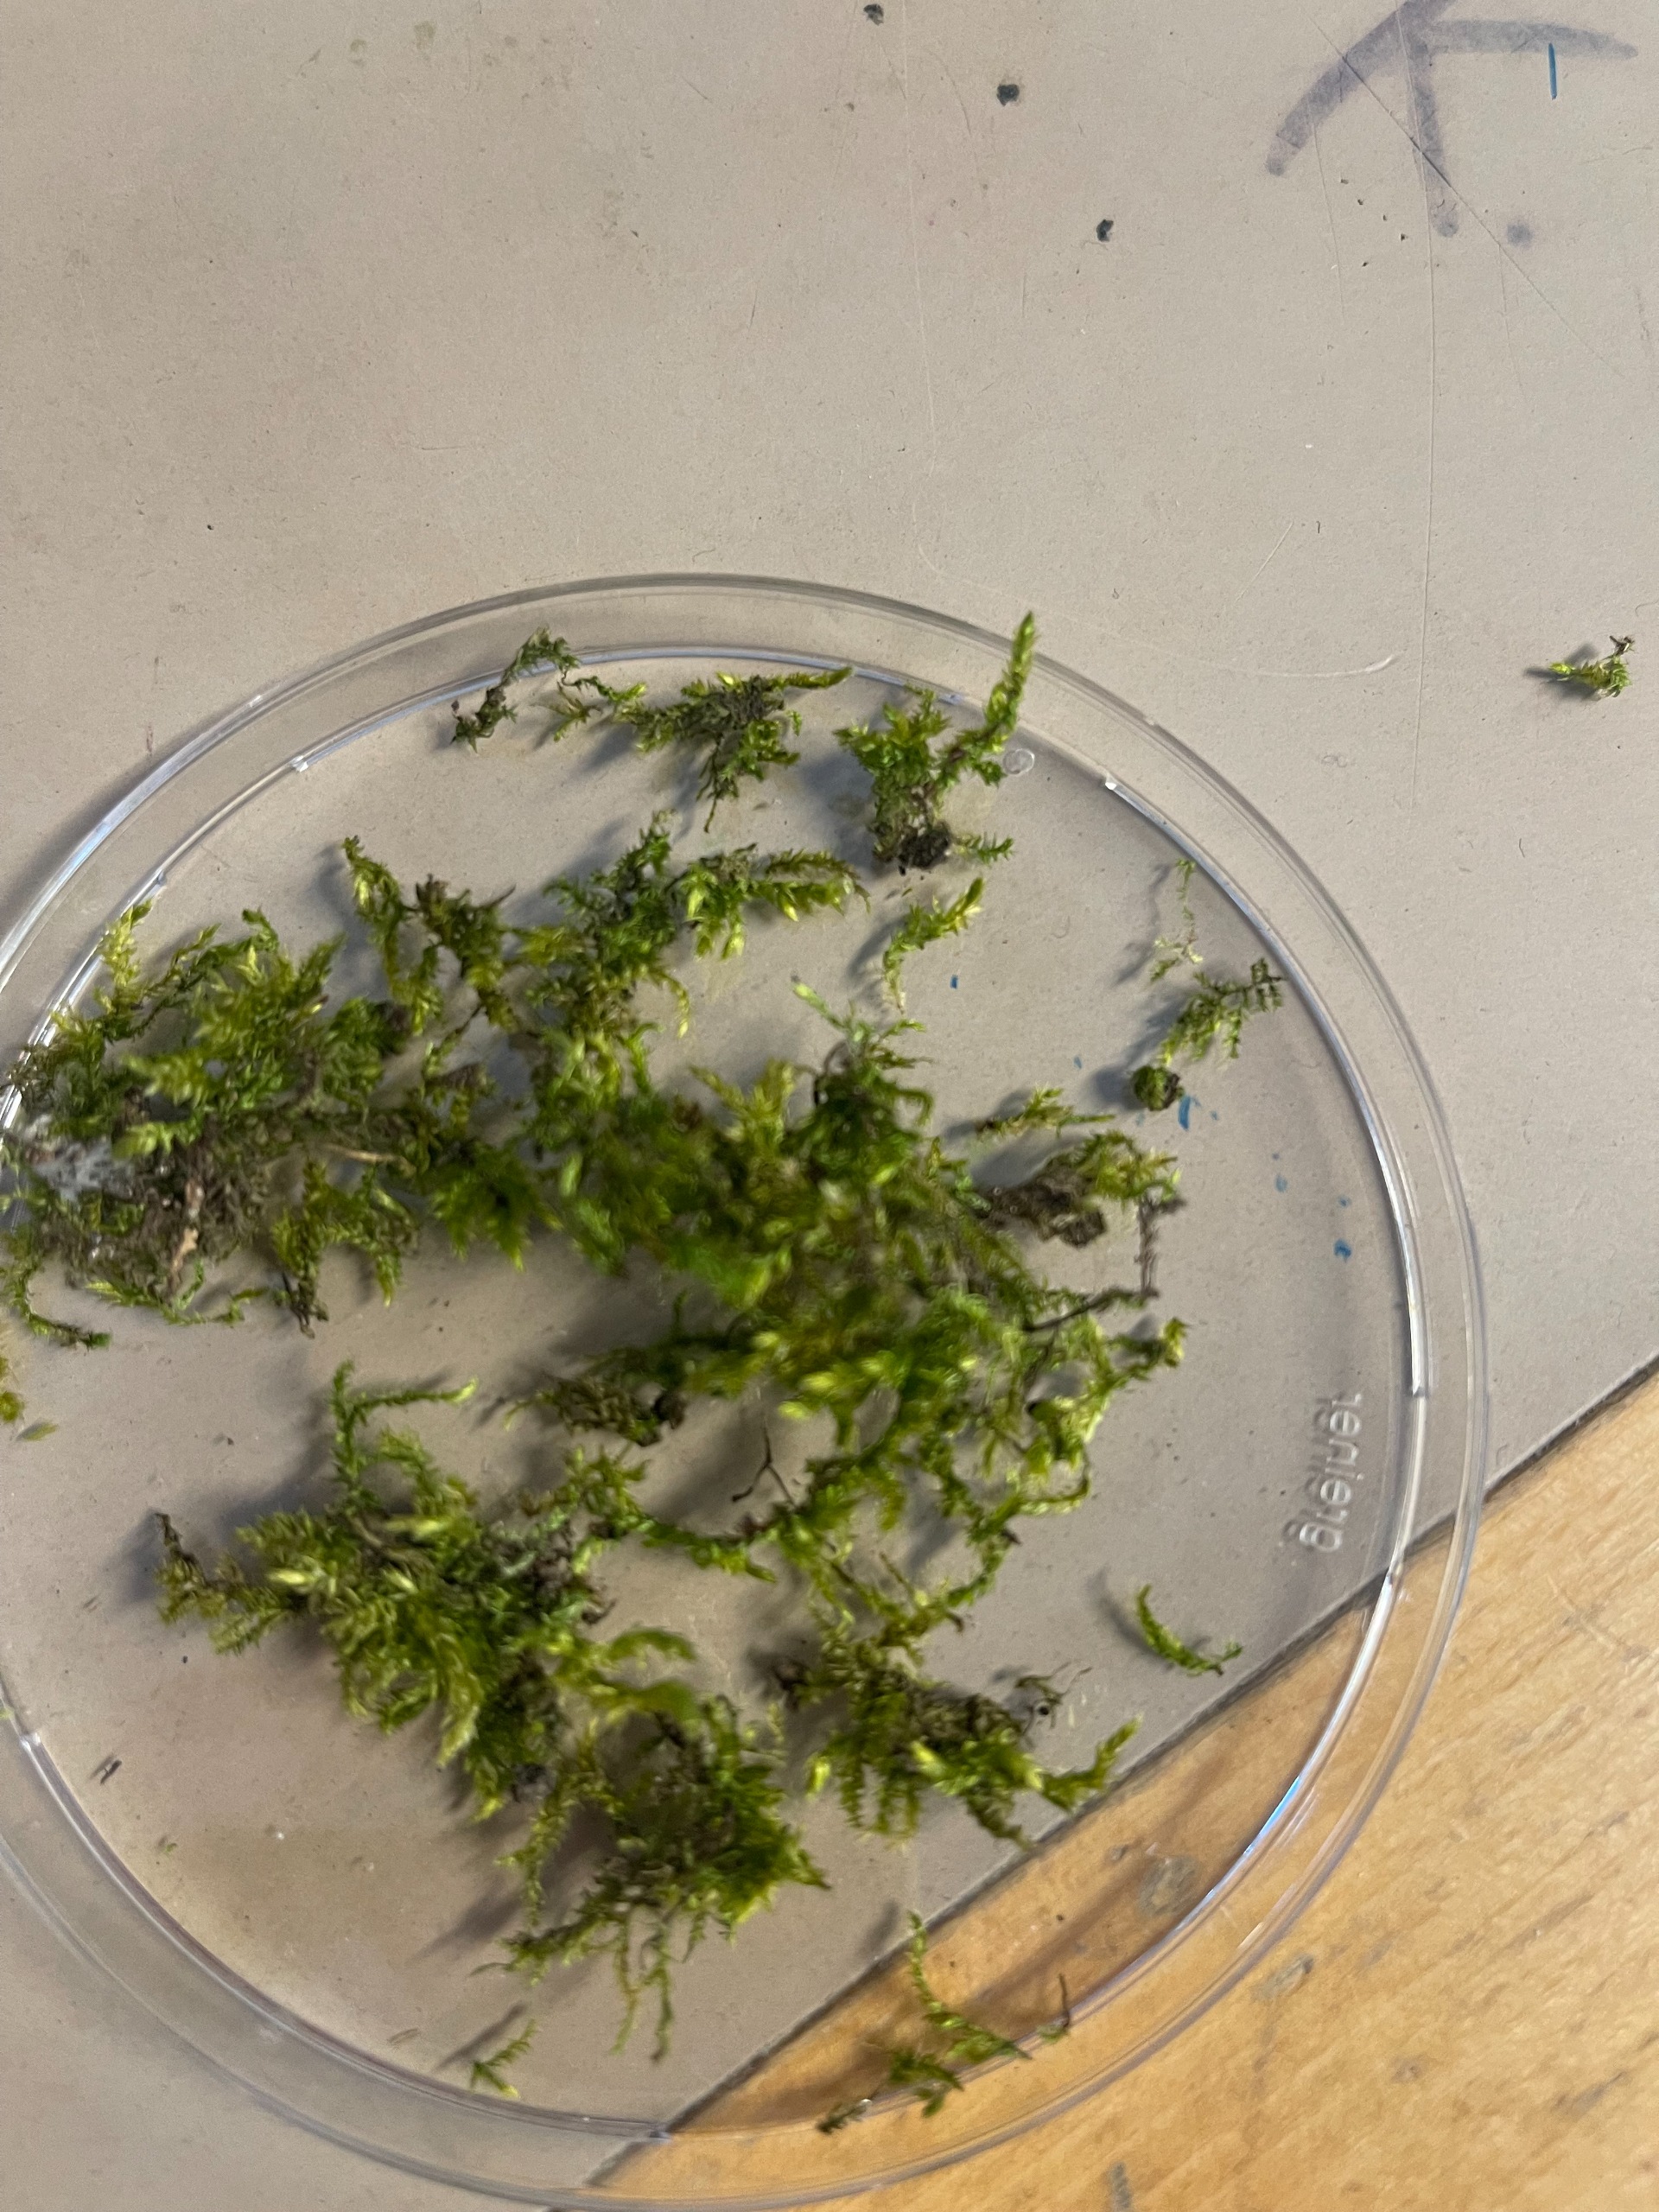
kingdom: Plantae
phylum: Bryophyta
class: Bryopsida
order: Hypnales
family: Brachytheciaceae
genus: Brachythecium
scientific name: Brachythecium
